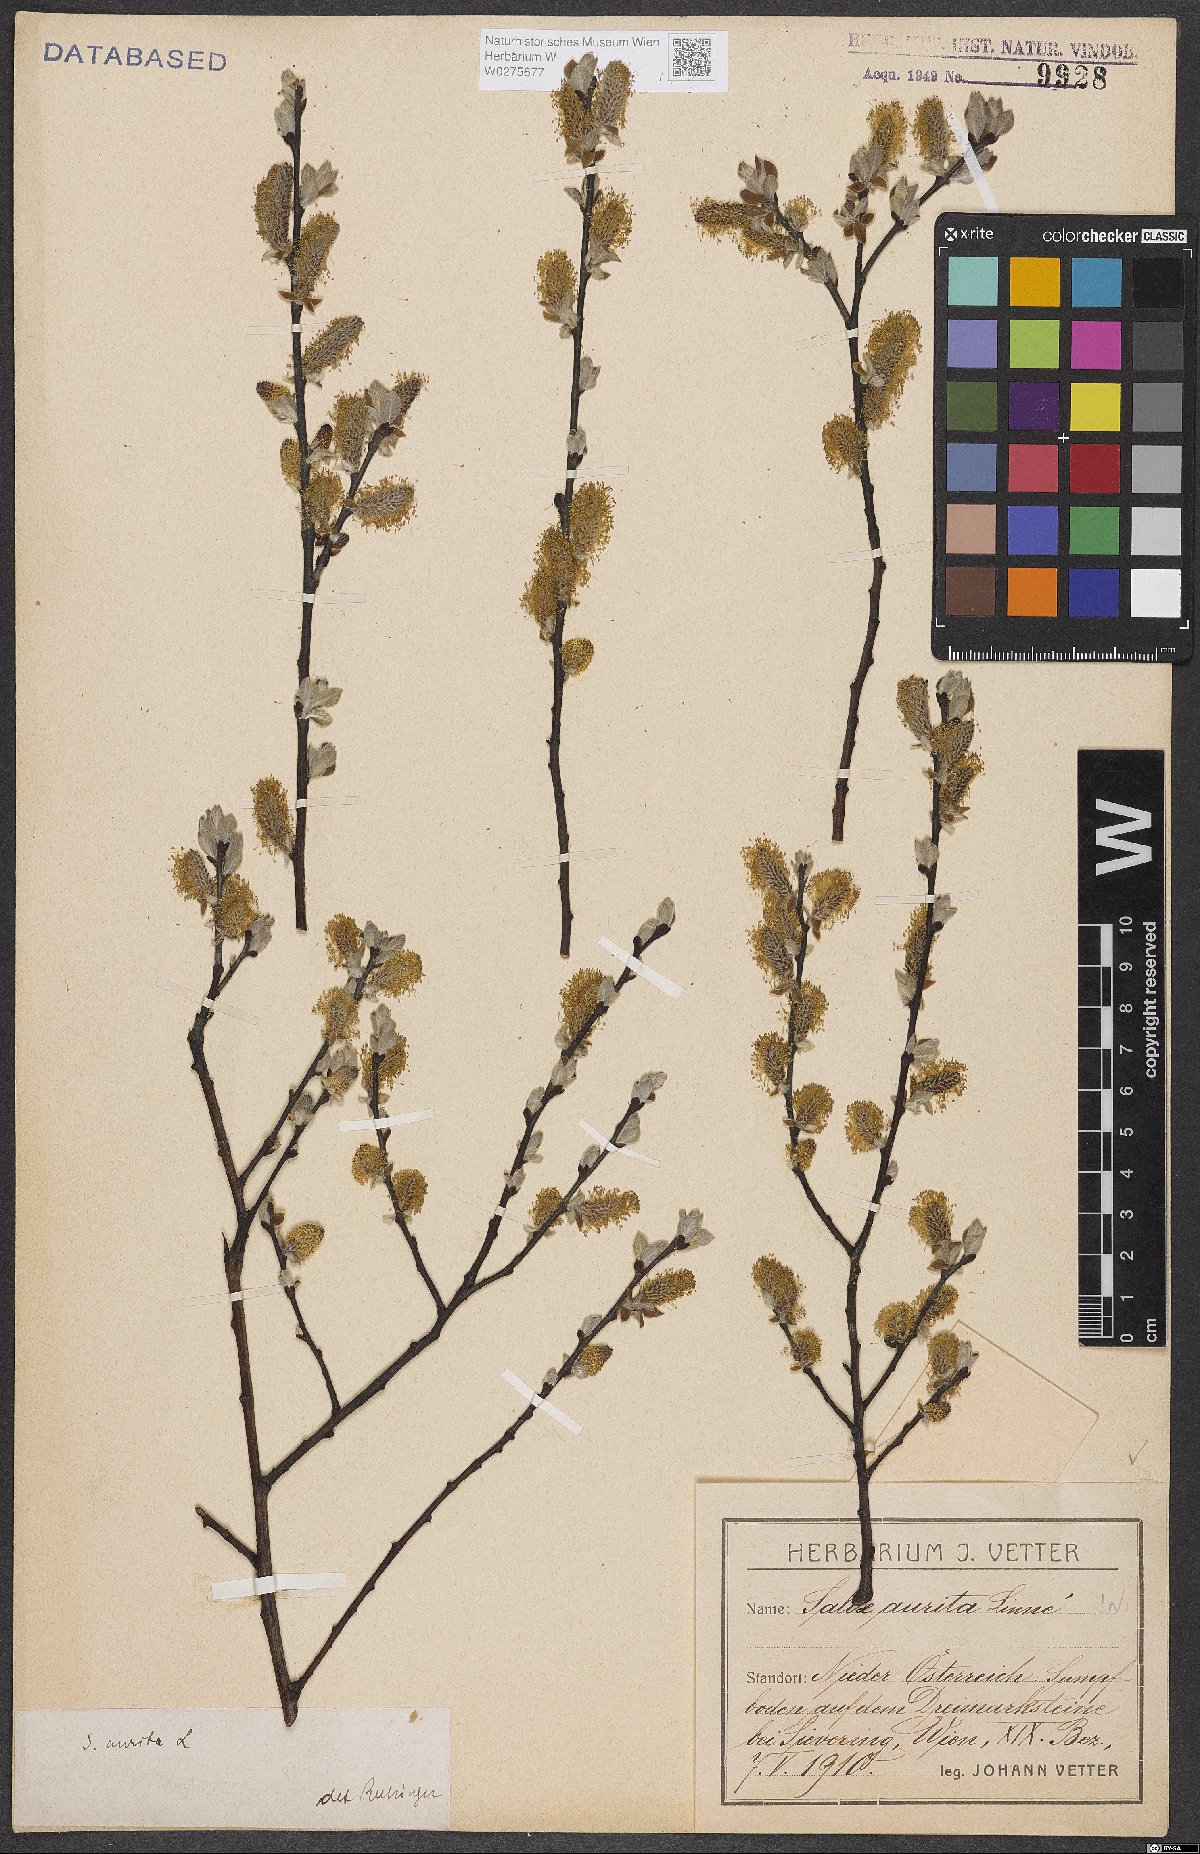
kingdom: Plantae
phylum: Tracheophyta
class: Magnoliopsida
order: Malpighiales
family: Salicaceae
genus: Salix
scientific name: Salix aurita
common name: Eared willow
